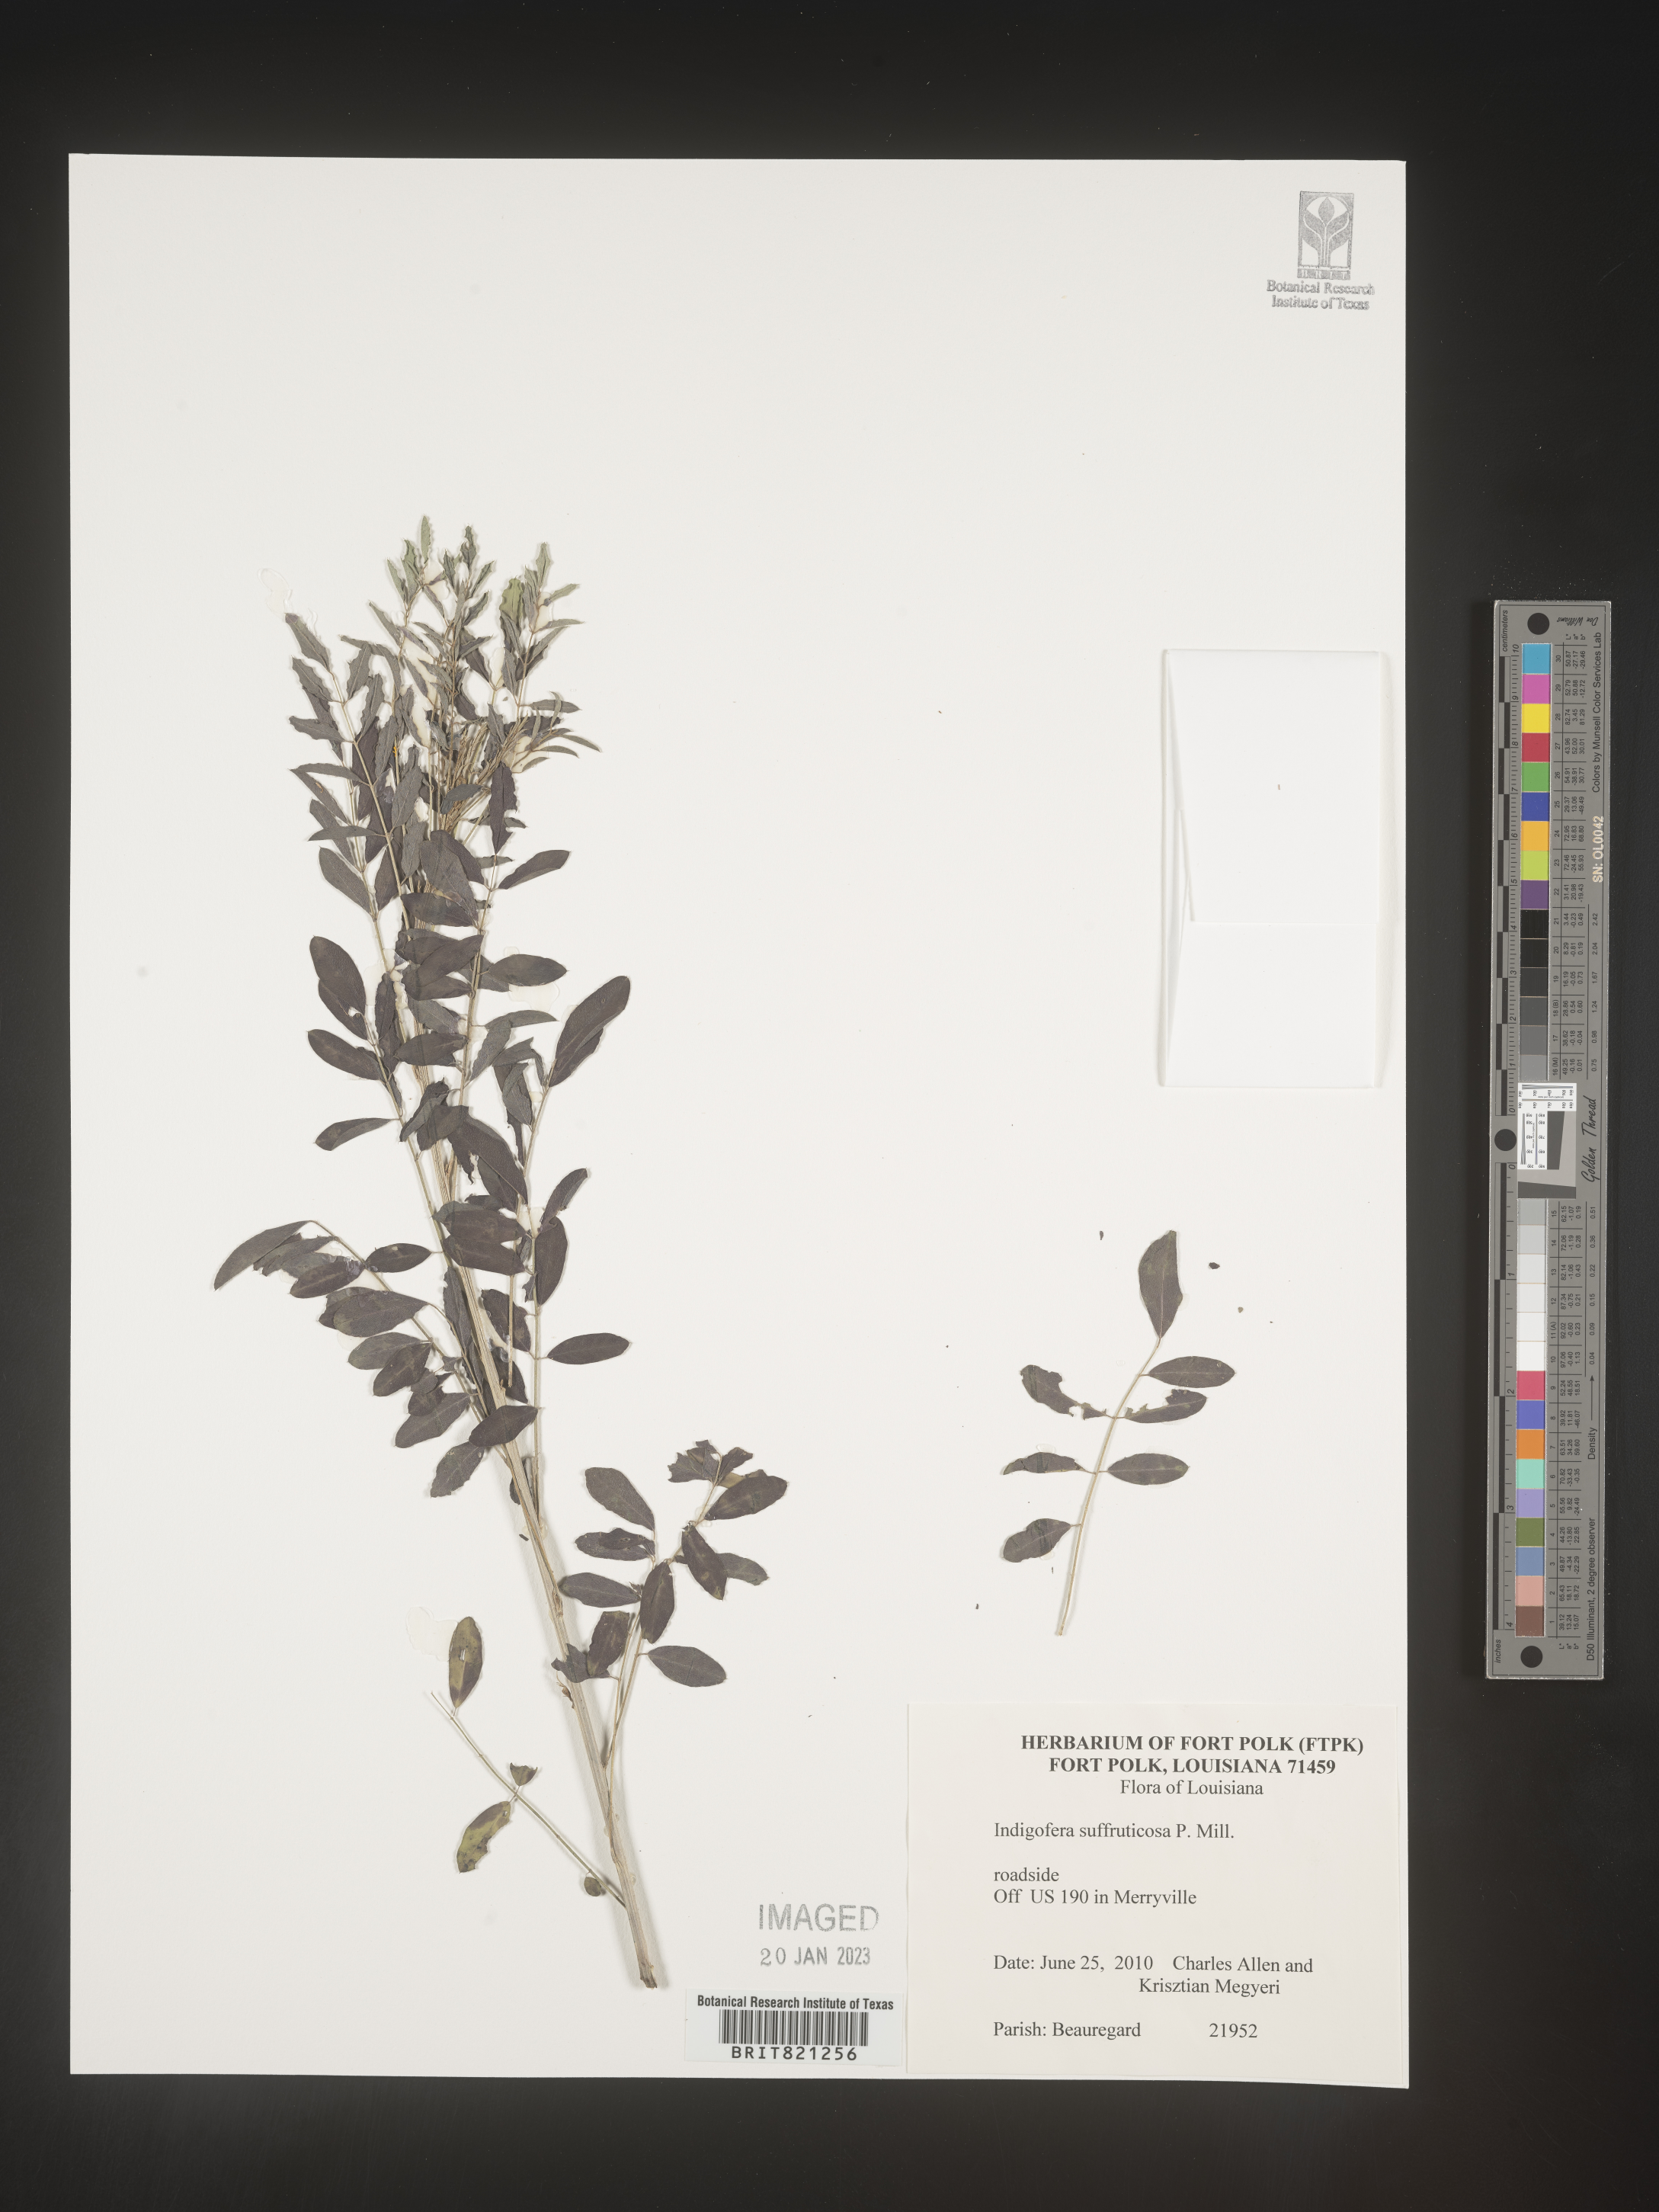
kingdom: Plantae
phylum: Tracheophyta
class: Magnoliopsida
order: Fabales
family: Fabaceae
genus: Indigofera
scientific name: Indigofera
